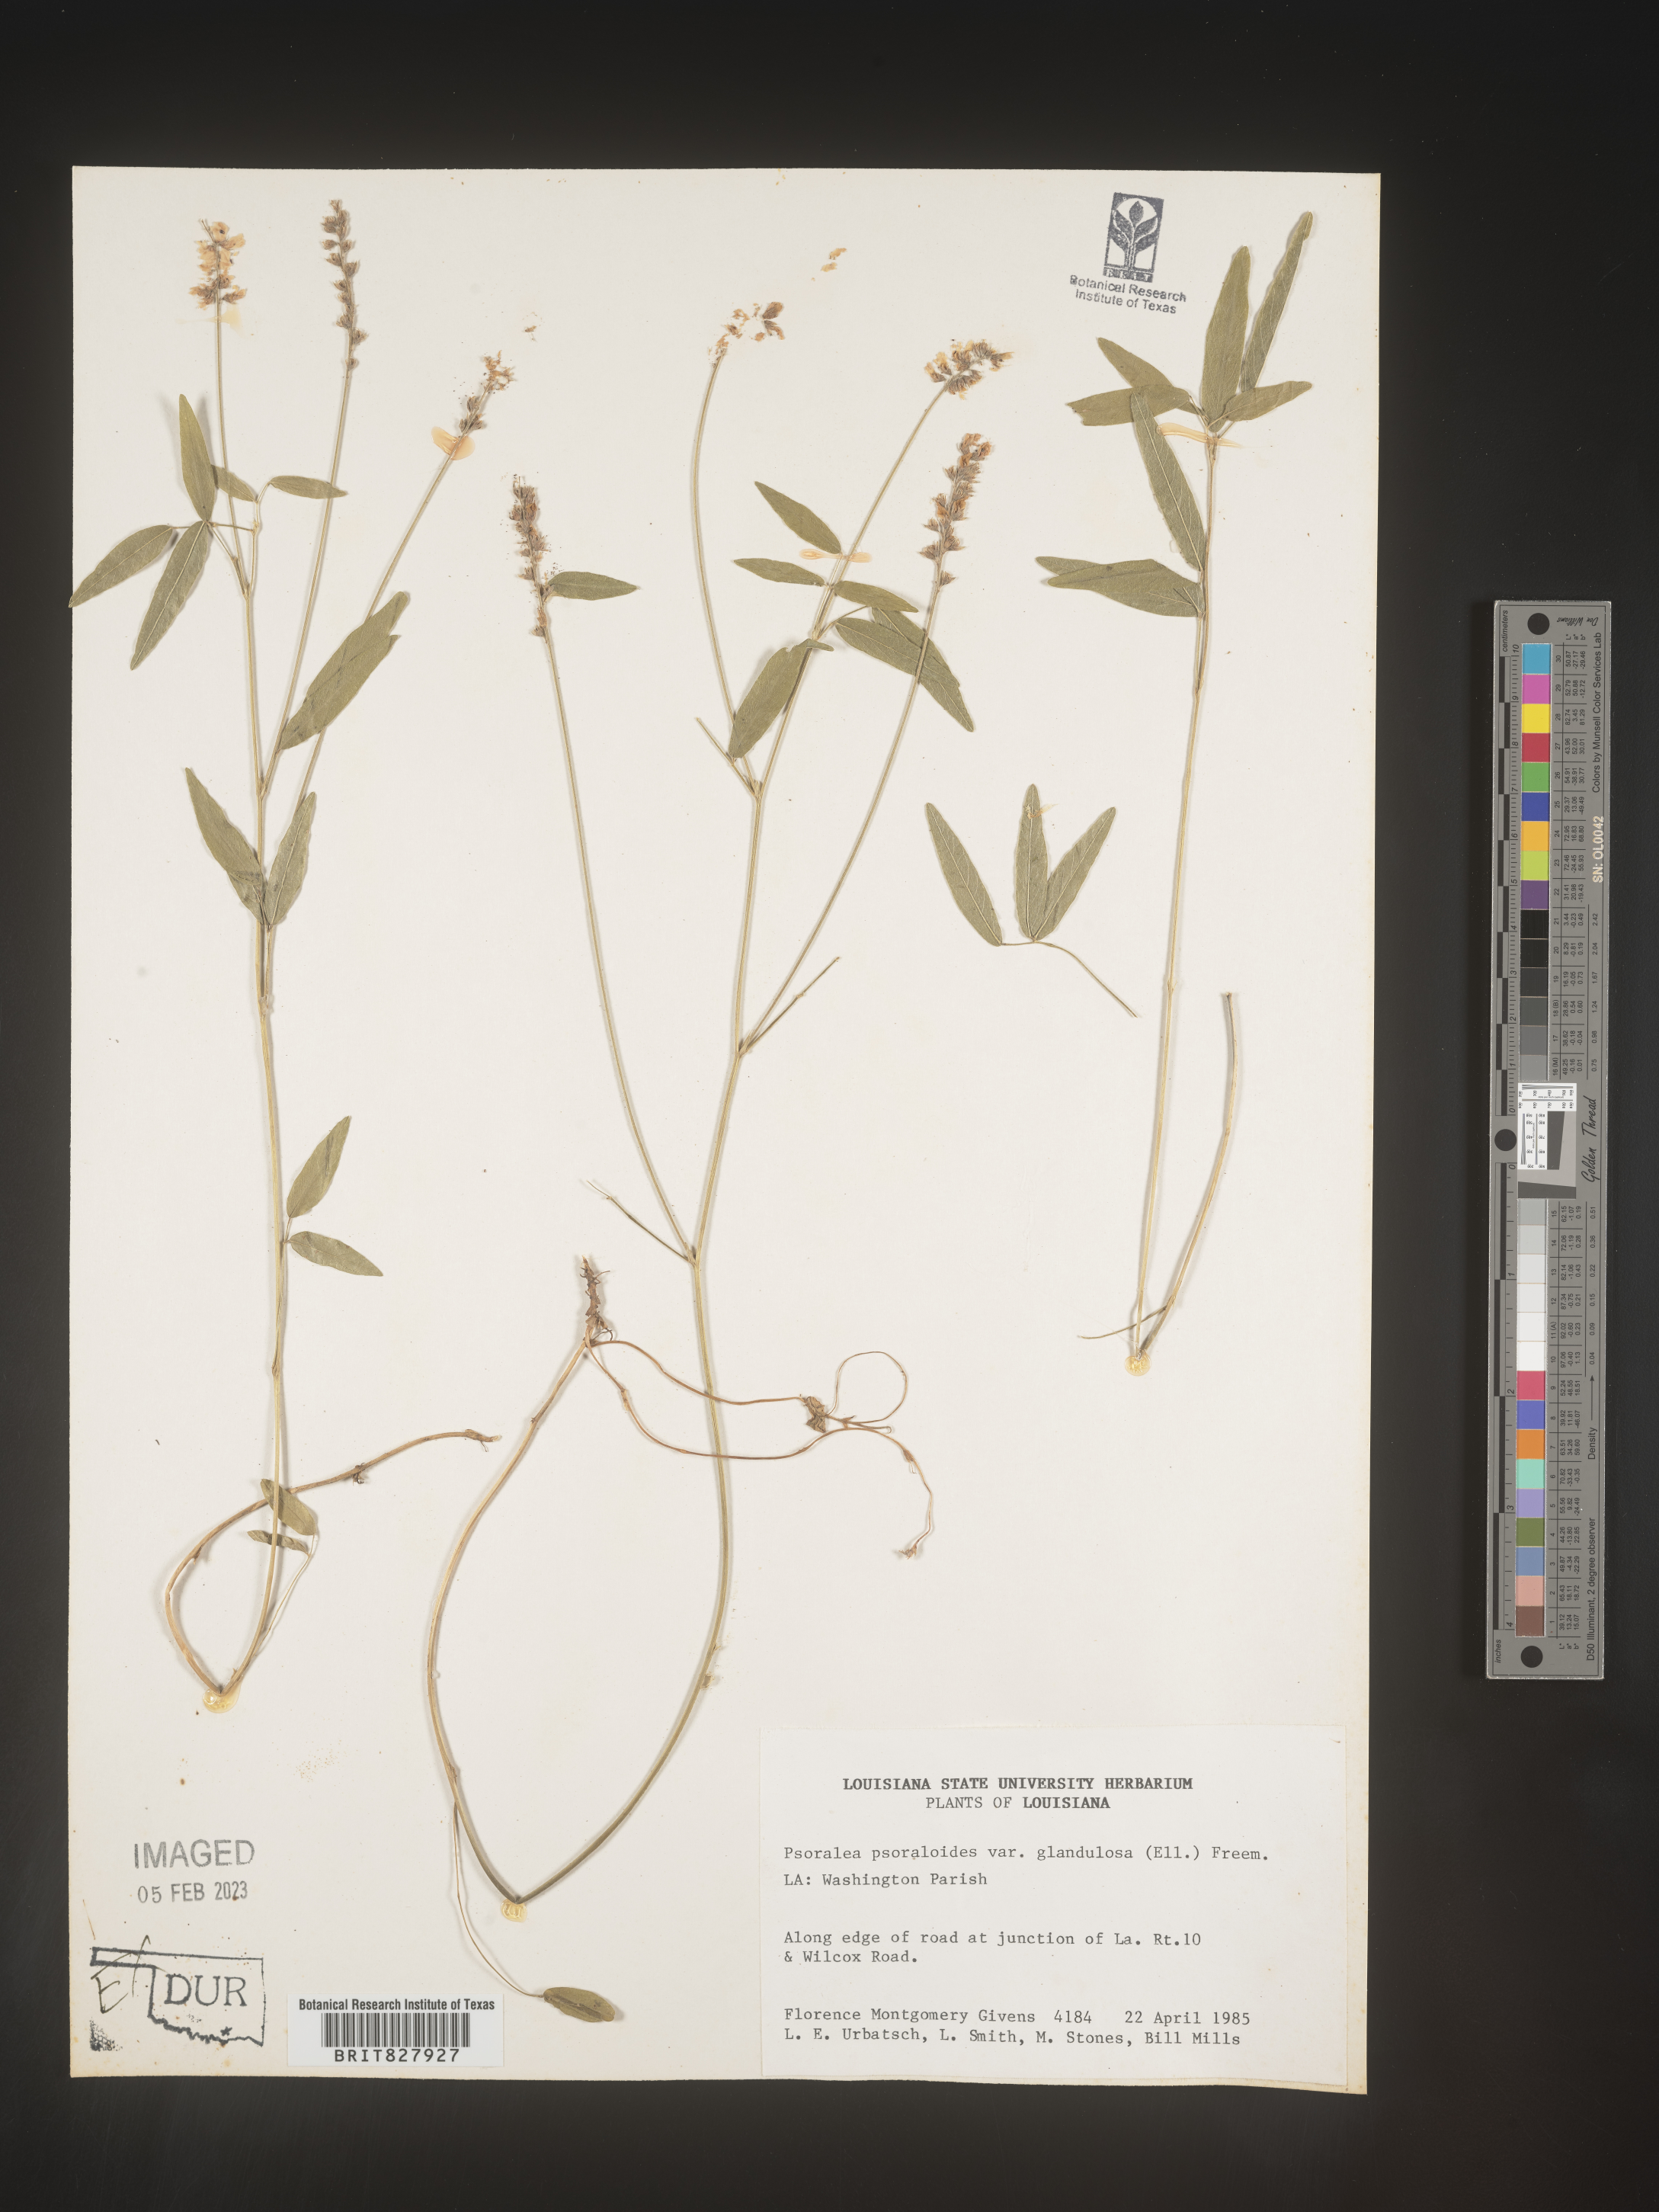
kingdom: Plantae
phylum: Tracheophyta
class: Magnoliopsida
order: Fabales
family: Fabaceae
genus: Orbexilum
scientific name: Orbexilum pedunculatum
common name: Sampson's snakeroot
